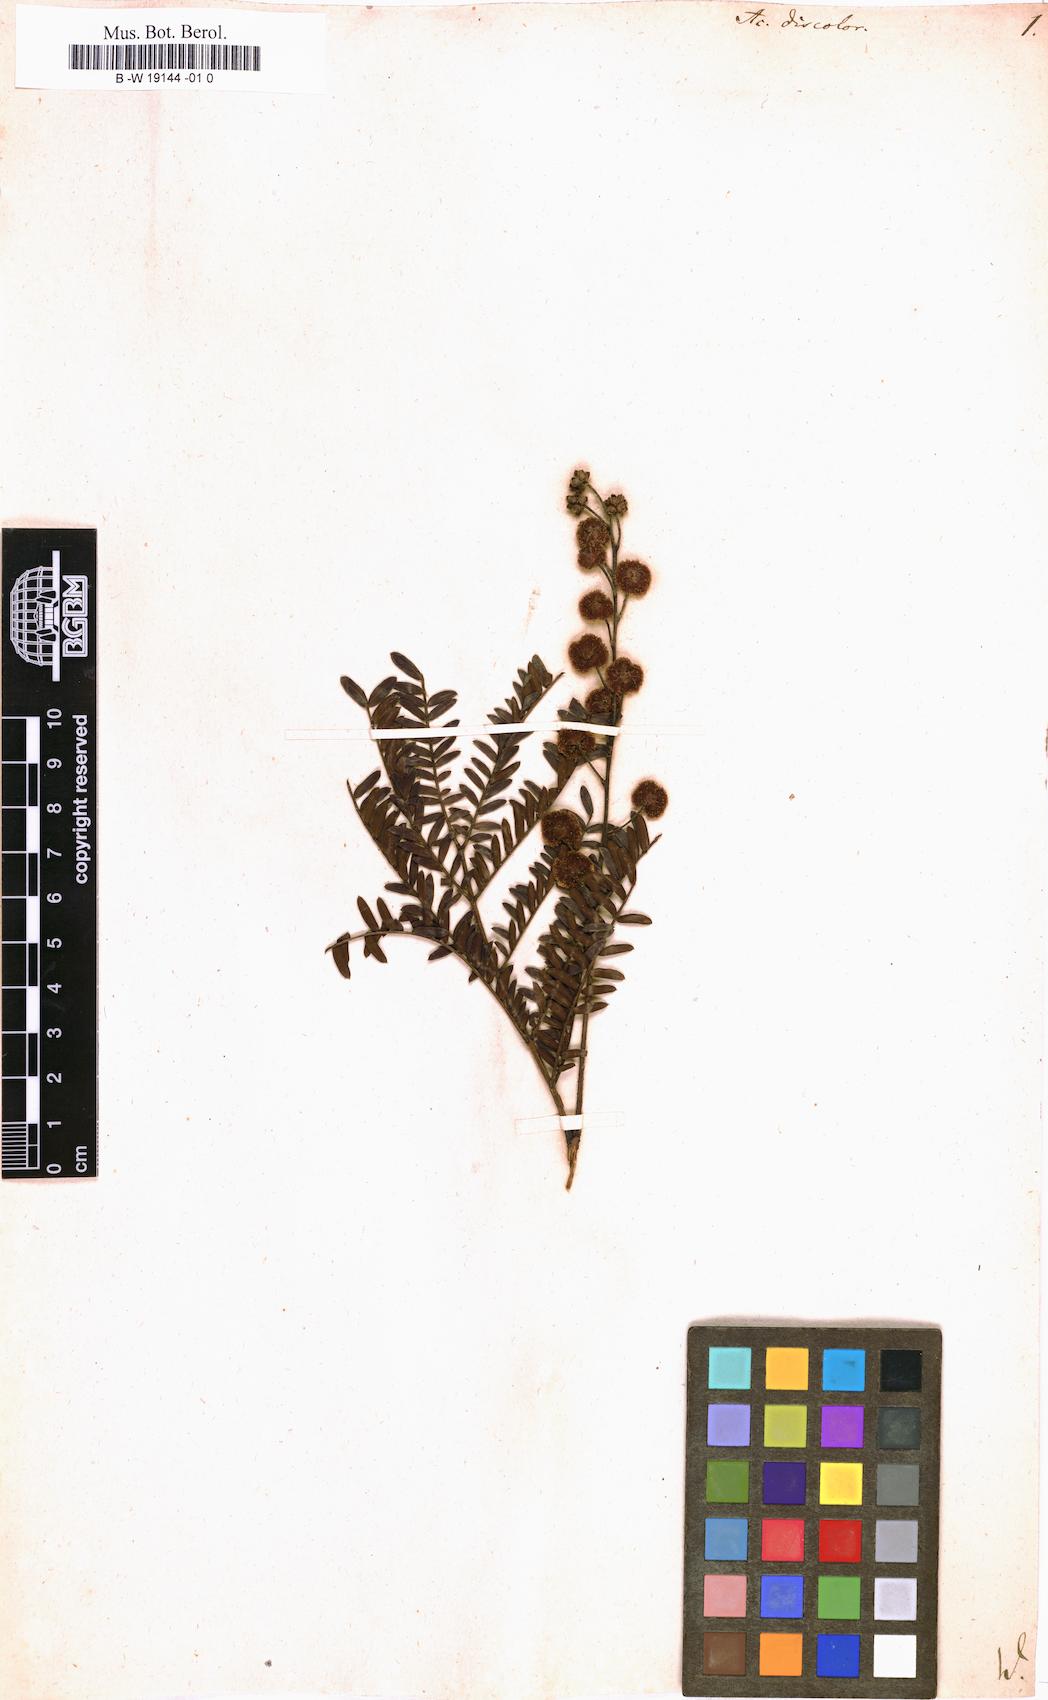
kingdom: Plantae
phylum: Tracheophyta
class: Magnoliopsida
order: Fabales
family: Fabaceae
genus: Acacia
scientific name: Acacia terminalis
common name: Cedar wattle
